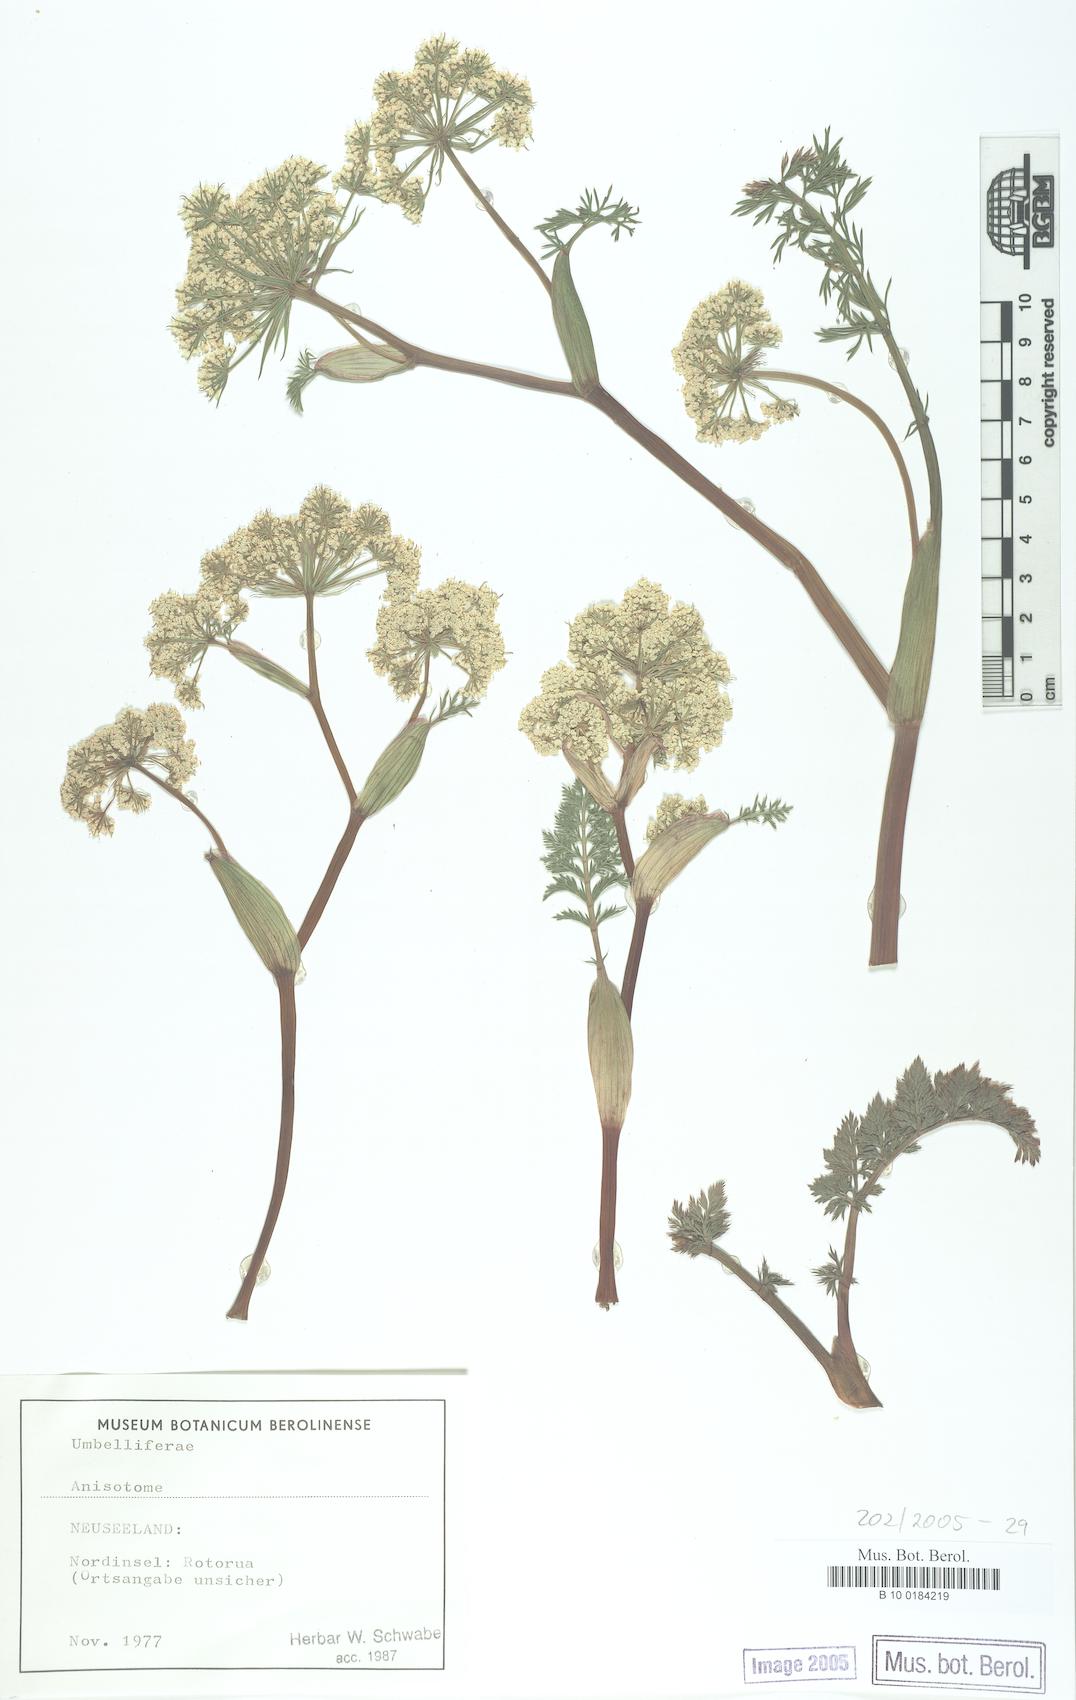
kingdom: Plantae
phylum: Tracheophyta
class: Magnoliopsida
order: Apiales
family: Apiaceae
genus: Anisotome
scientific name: Anisotome
